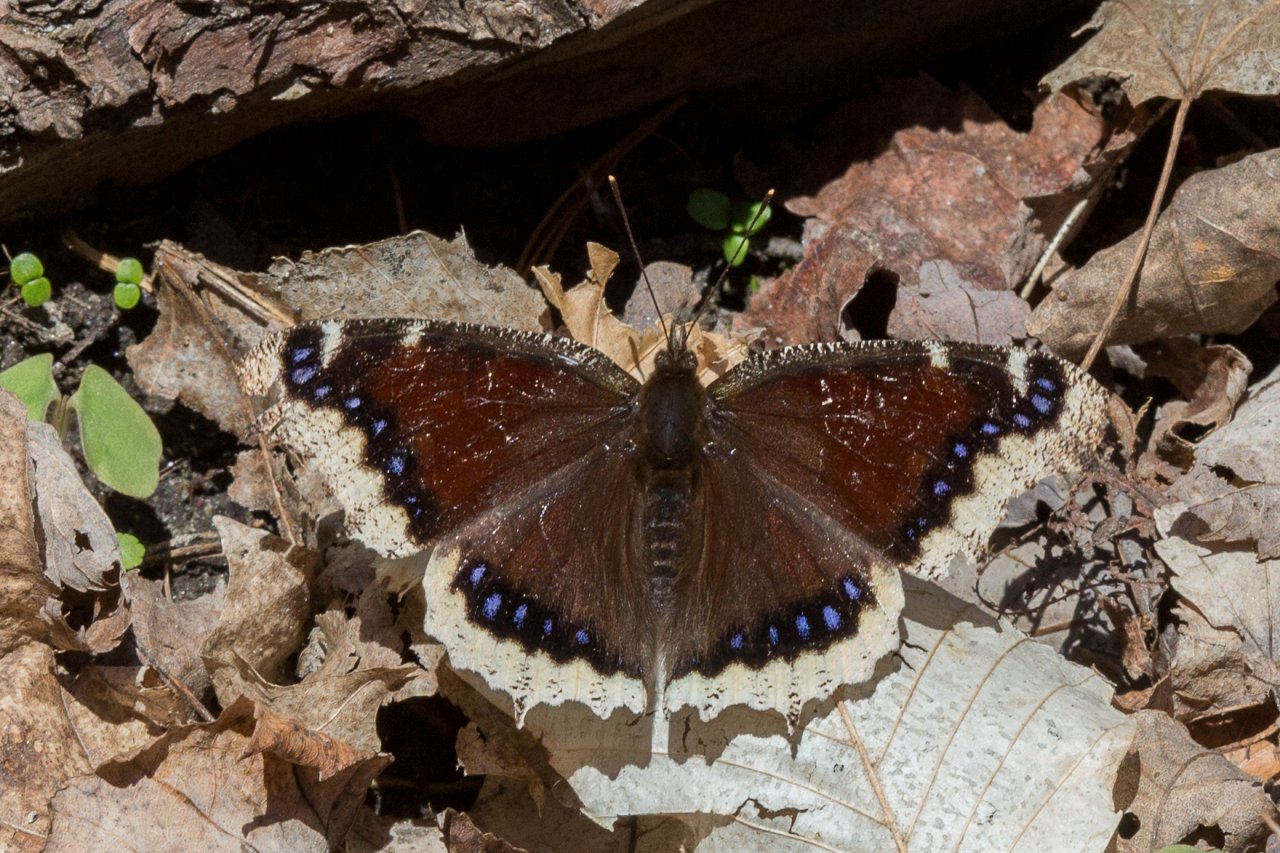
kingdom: Animalia
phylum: Arthropoda
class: Insecta
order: Lepidoptera
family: Nymphalidae
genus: Nymphalis
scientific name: Nymphalis antiopa
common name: Mourning Cloak
